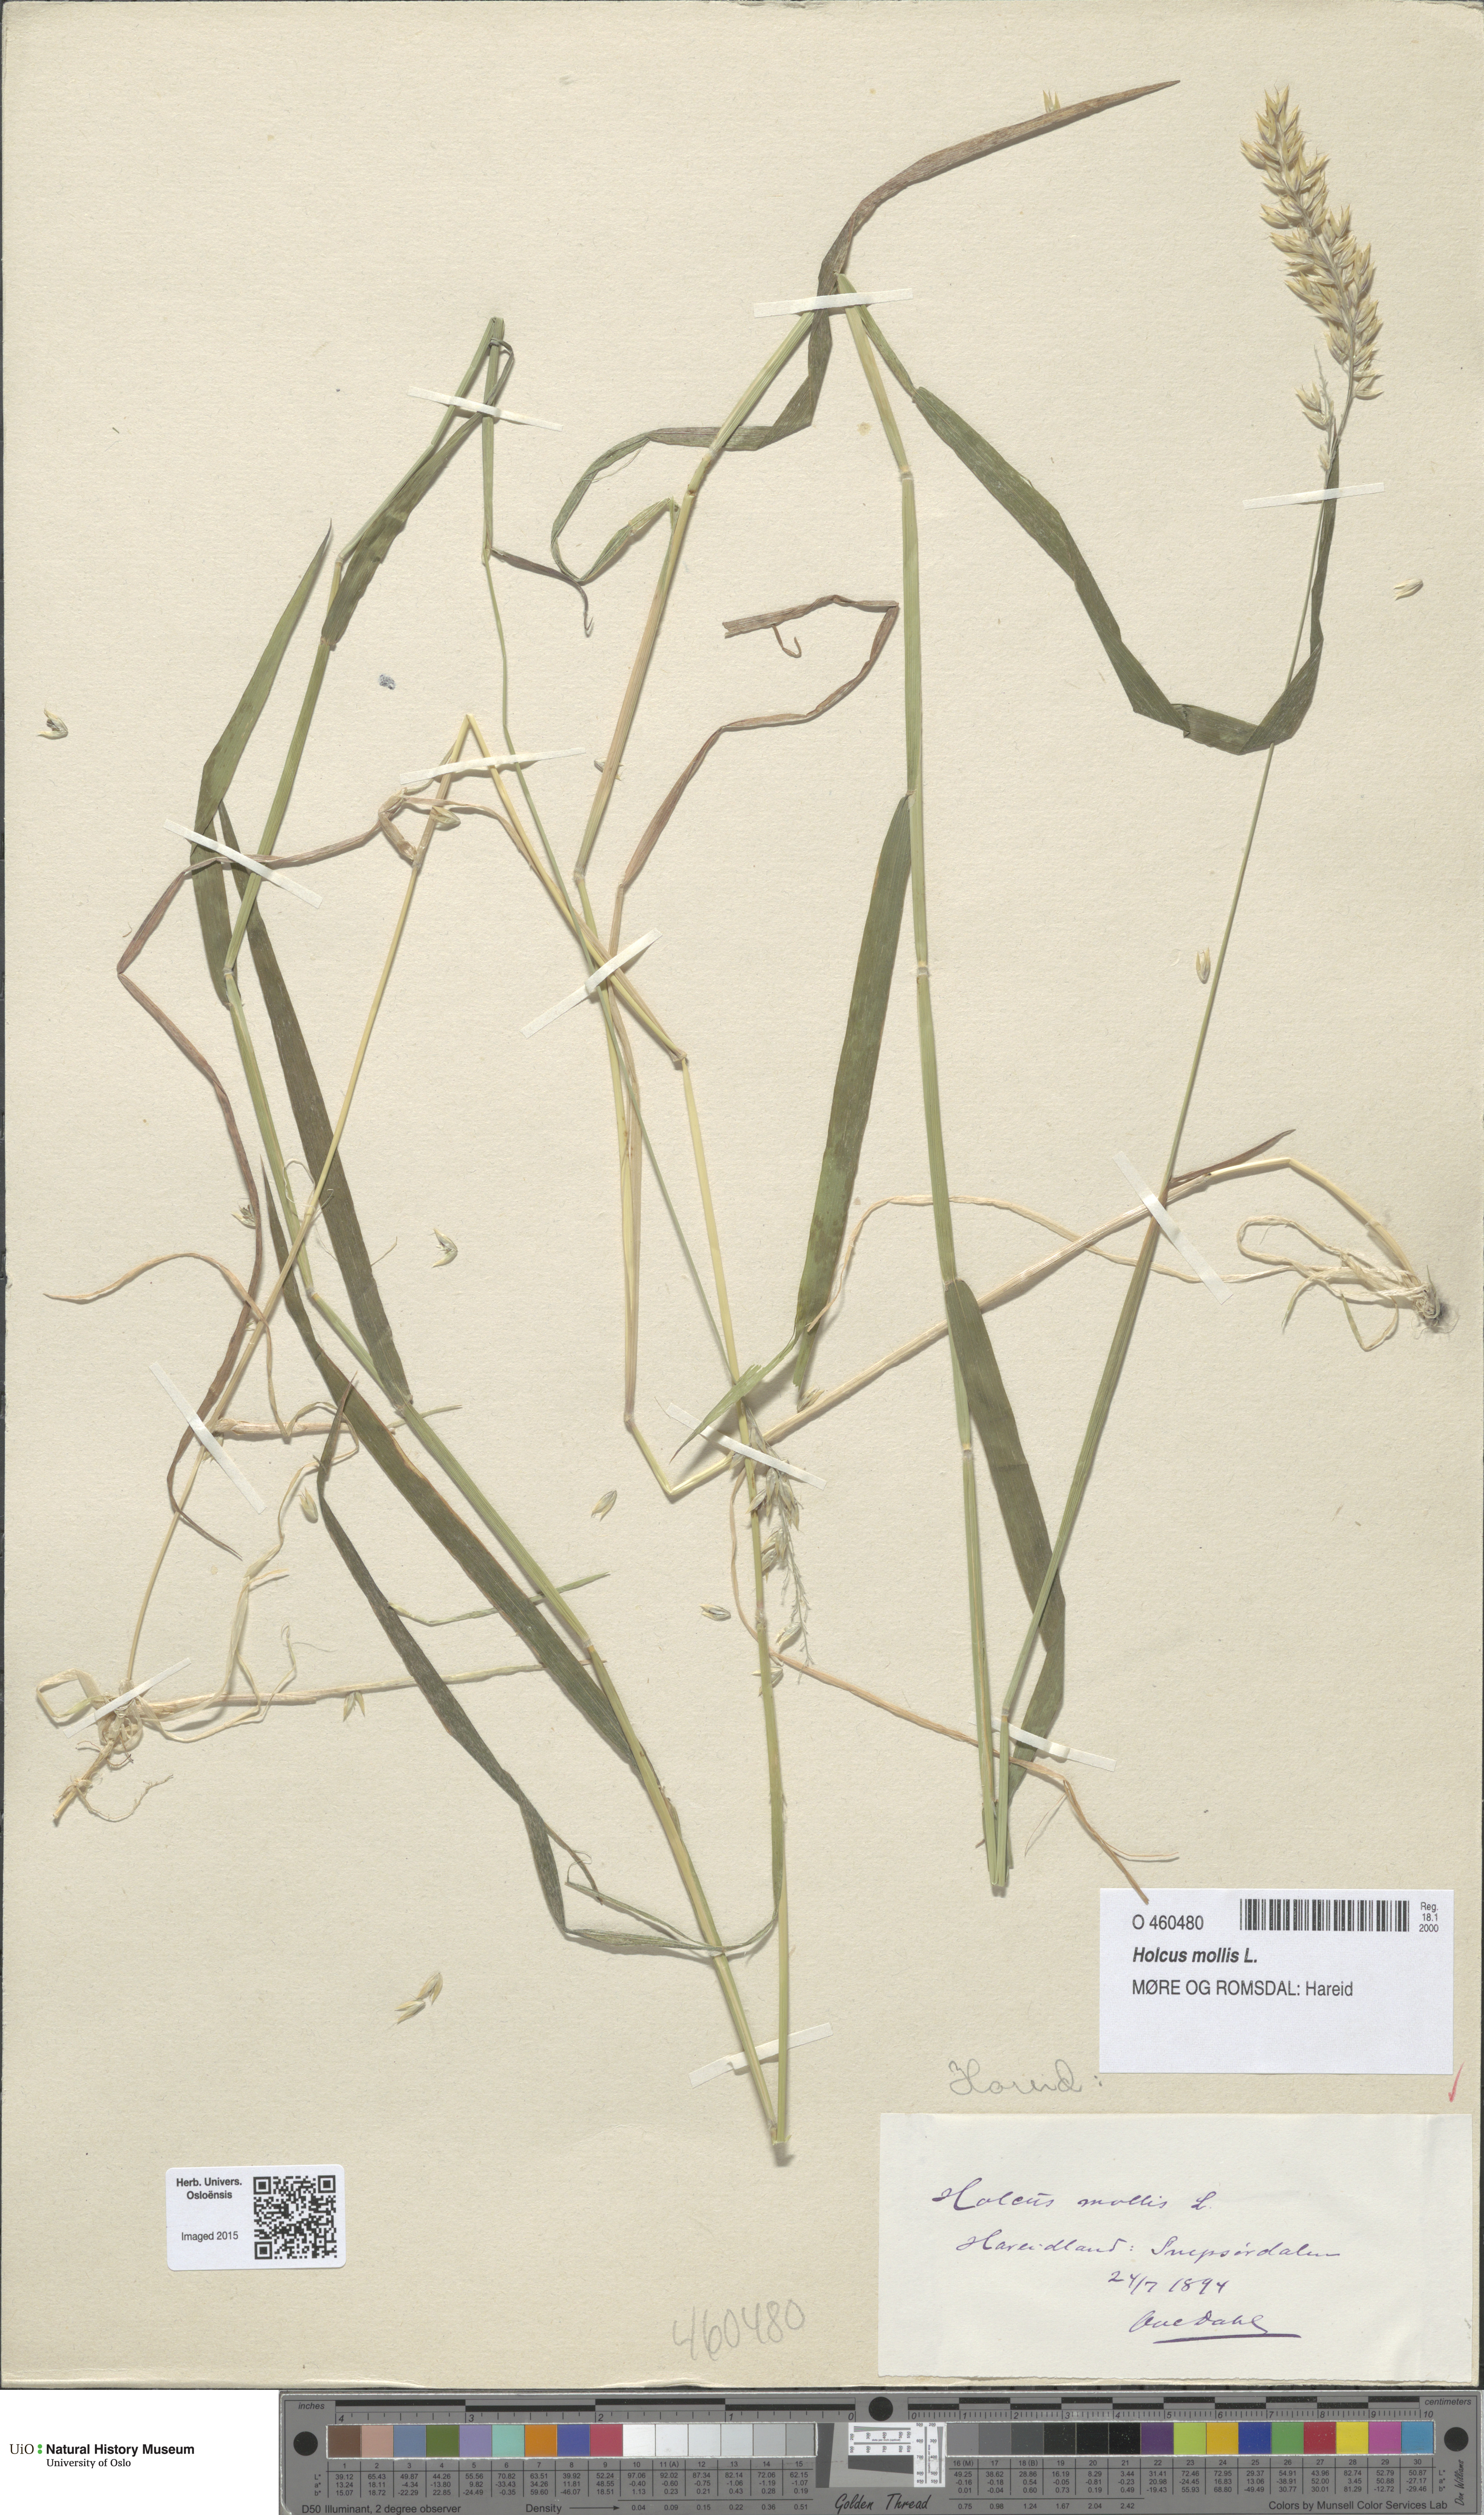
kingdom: Plantae
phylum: Tracheophyta
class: Liliopsida
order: Poales
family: Poaceae
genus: Holcus
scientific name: Holcus mollis
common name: Creeping velvetgrass
